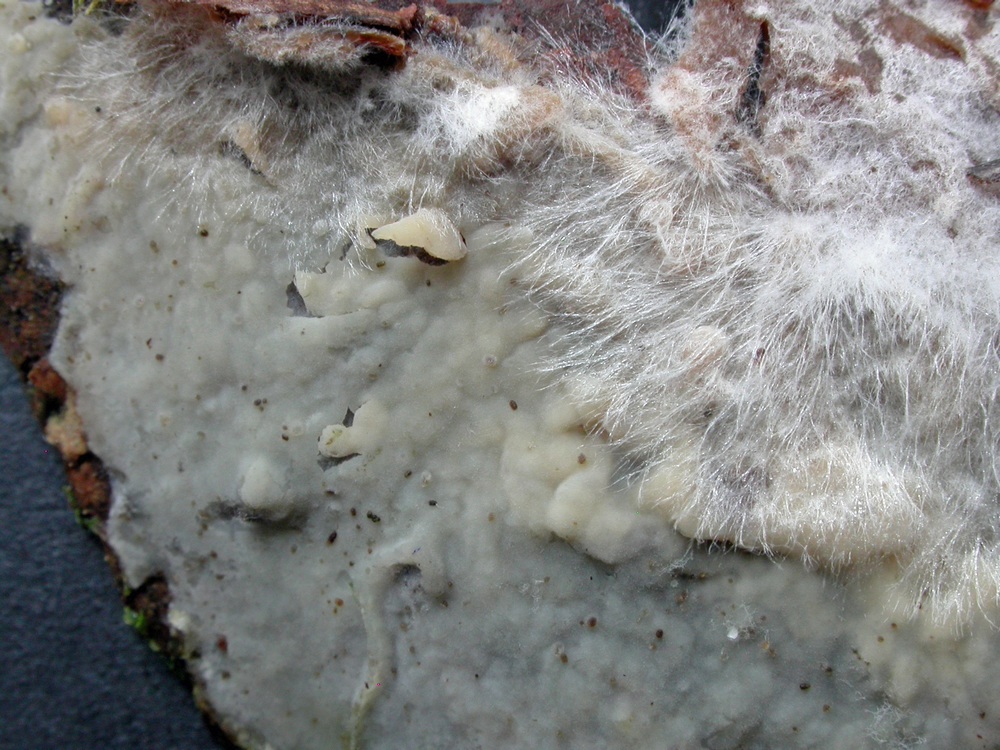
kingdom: Fungi
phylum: Basidiomycota
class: Agaricomycetes
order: Polyporales
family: Phanerochaetaceae
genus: Phanerochaete
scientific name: Phanerochaete sordida
